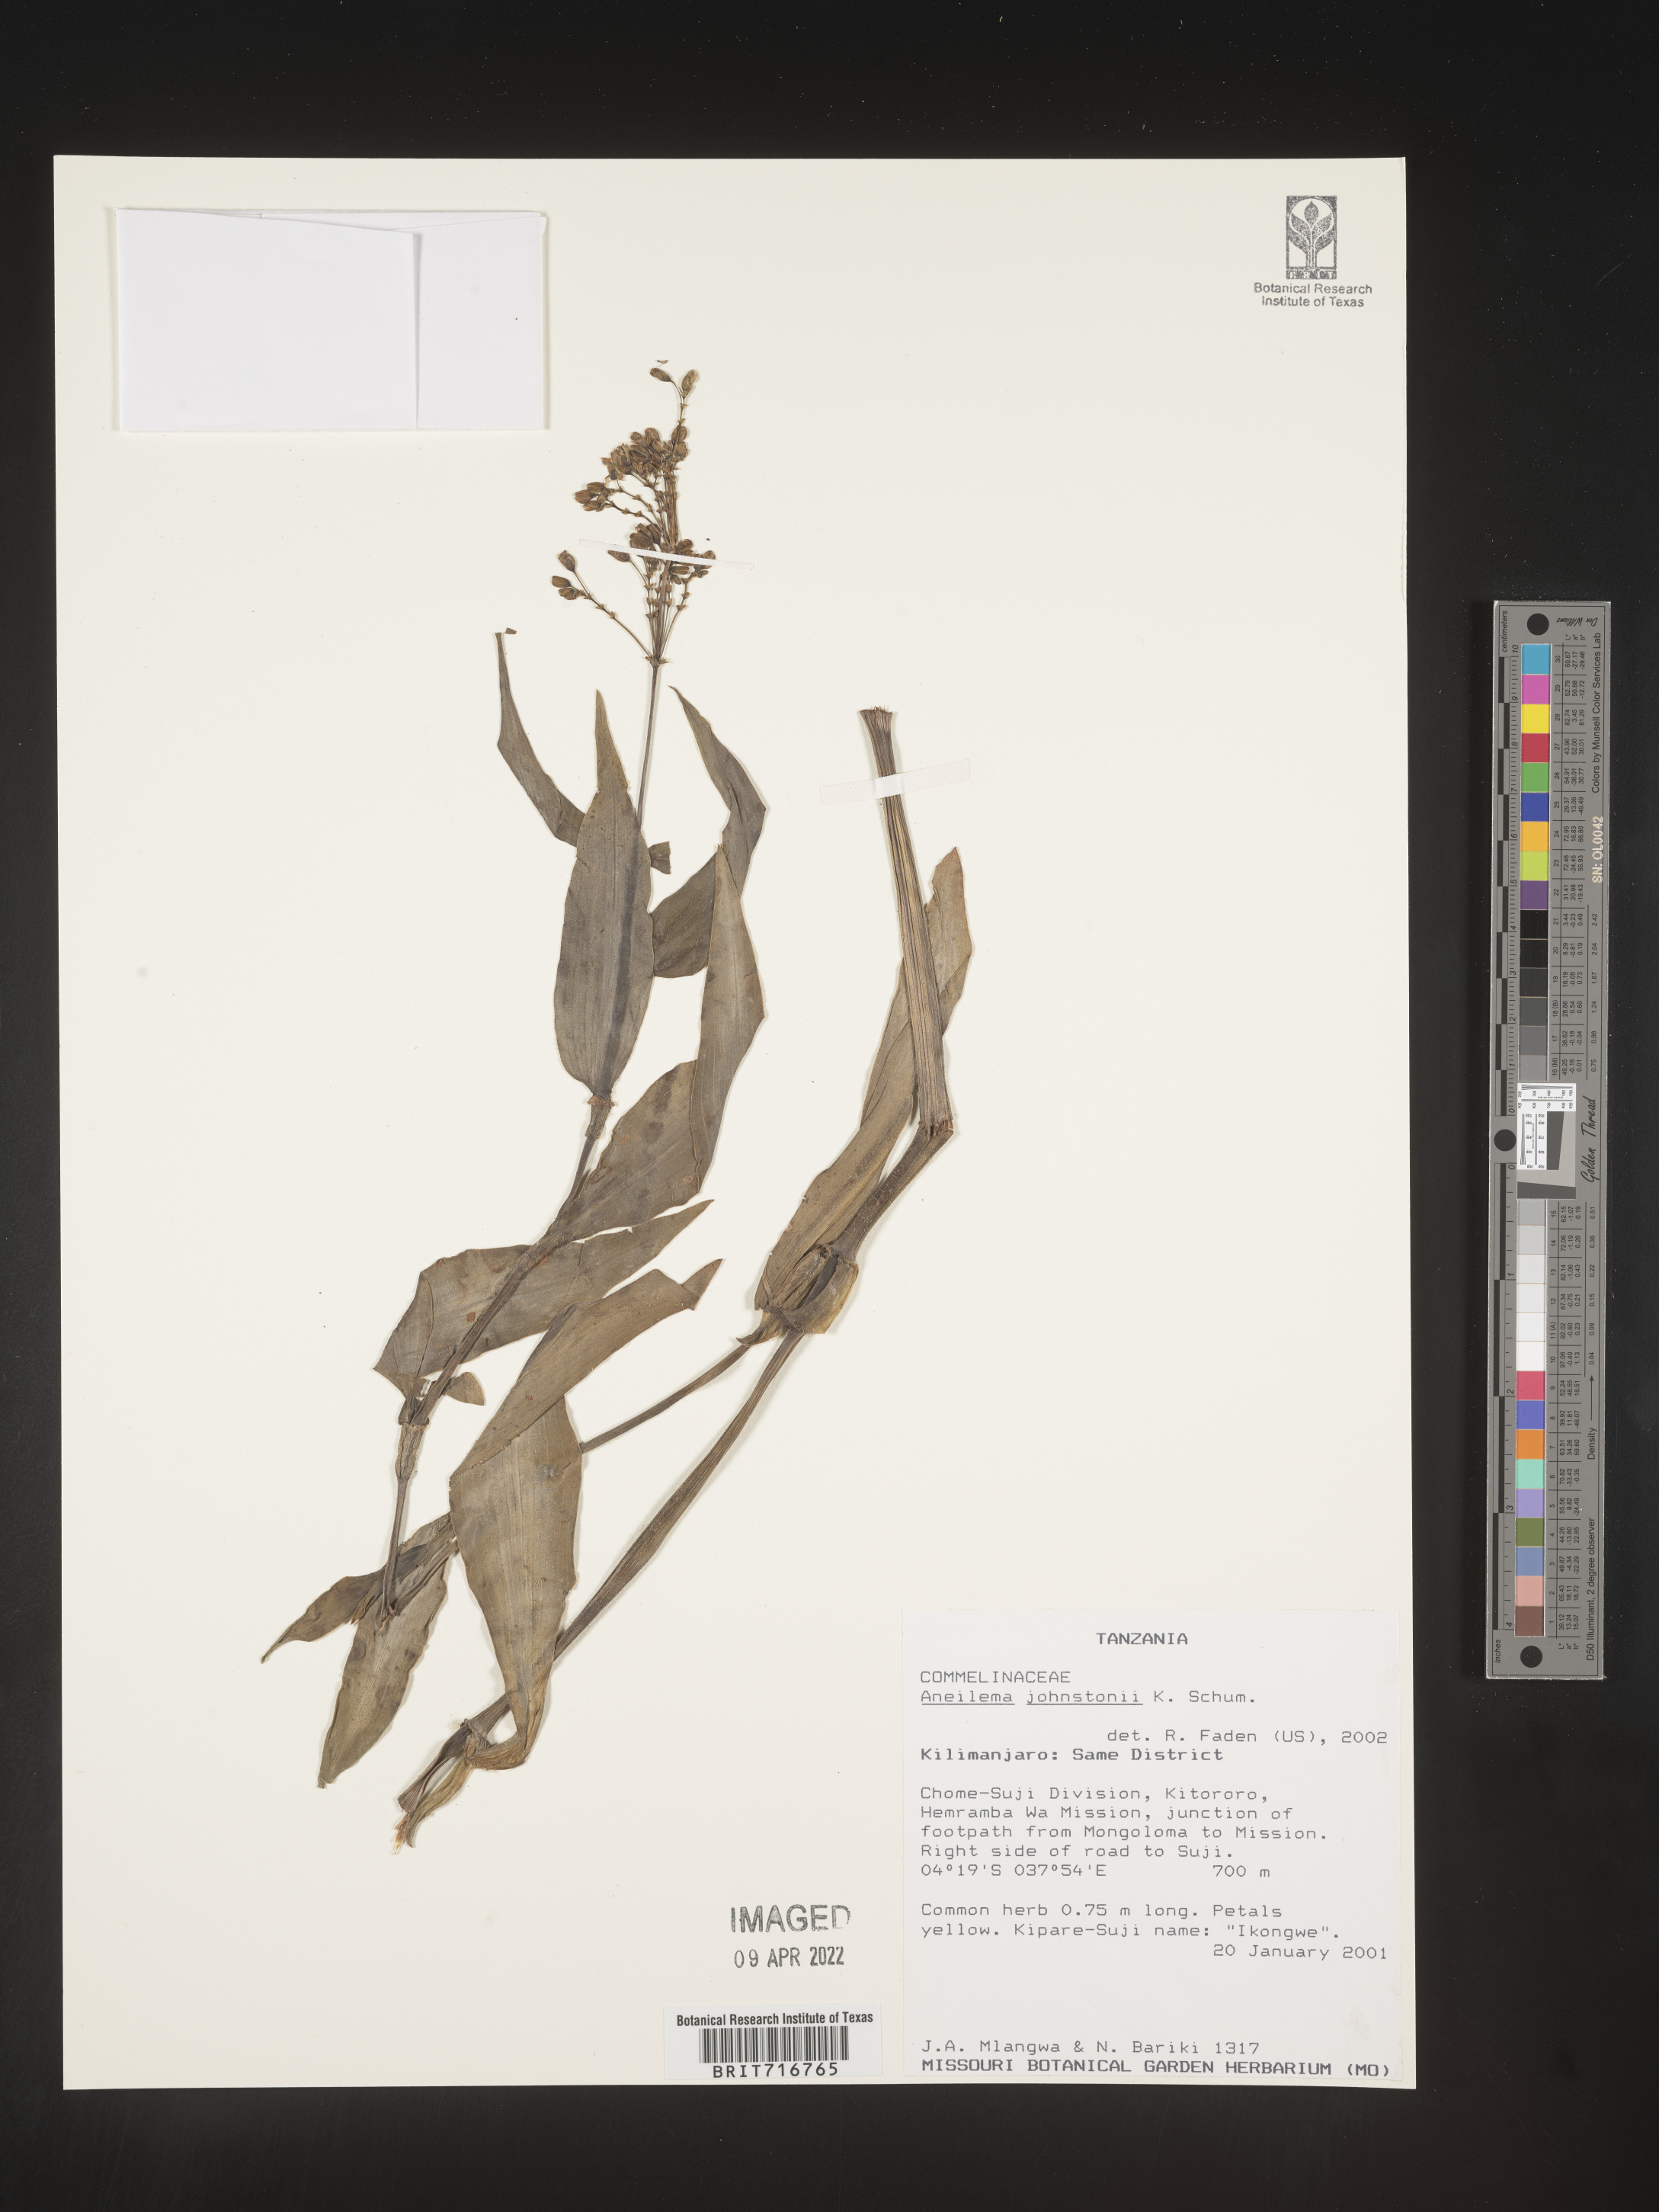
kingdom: Plantae
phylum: Tracheophyta
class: Liliopsida
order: Commelinales
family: Commelinaceae
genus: Aneilema
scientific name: Aneilema
